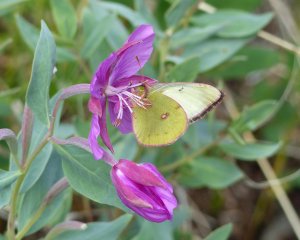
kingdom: Animalia
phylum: Arthropoda
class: Insecta
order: Lepidoptera
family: Pieridae
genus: Colias
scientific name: Colias philodice
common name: Clouded Sulphur
